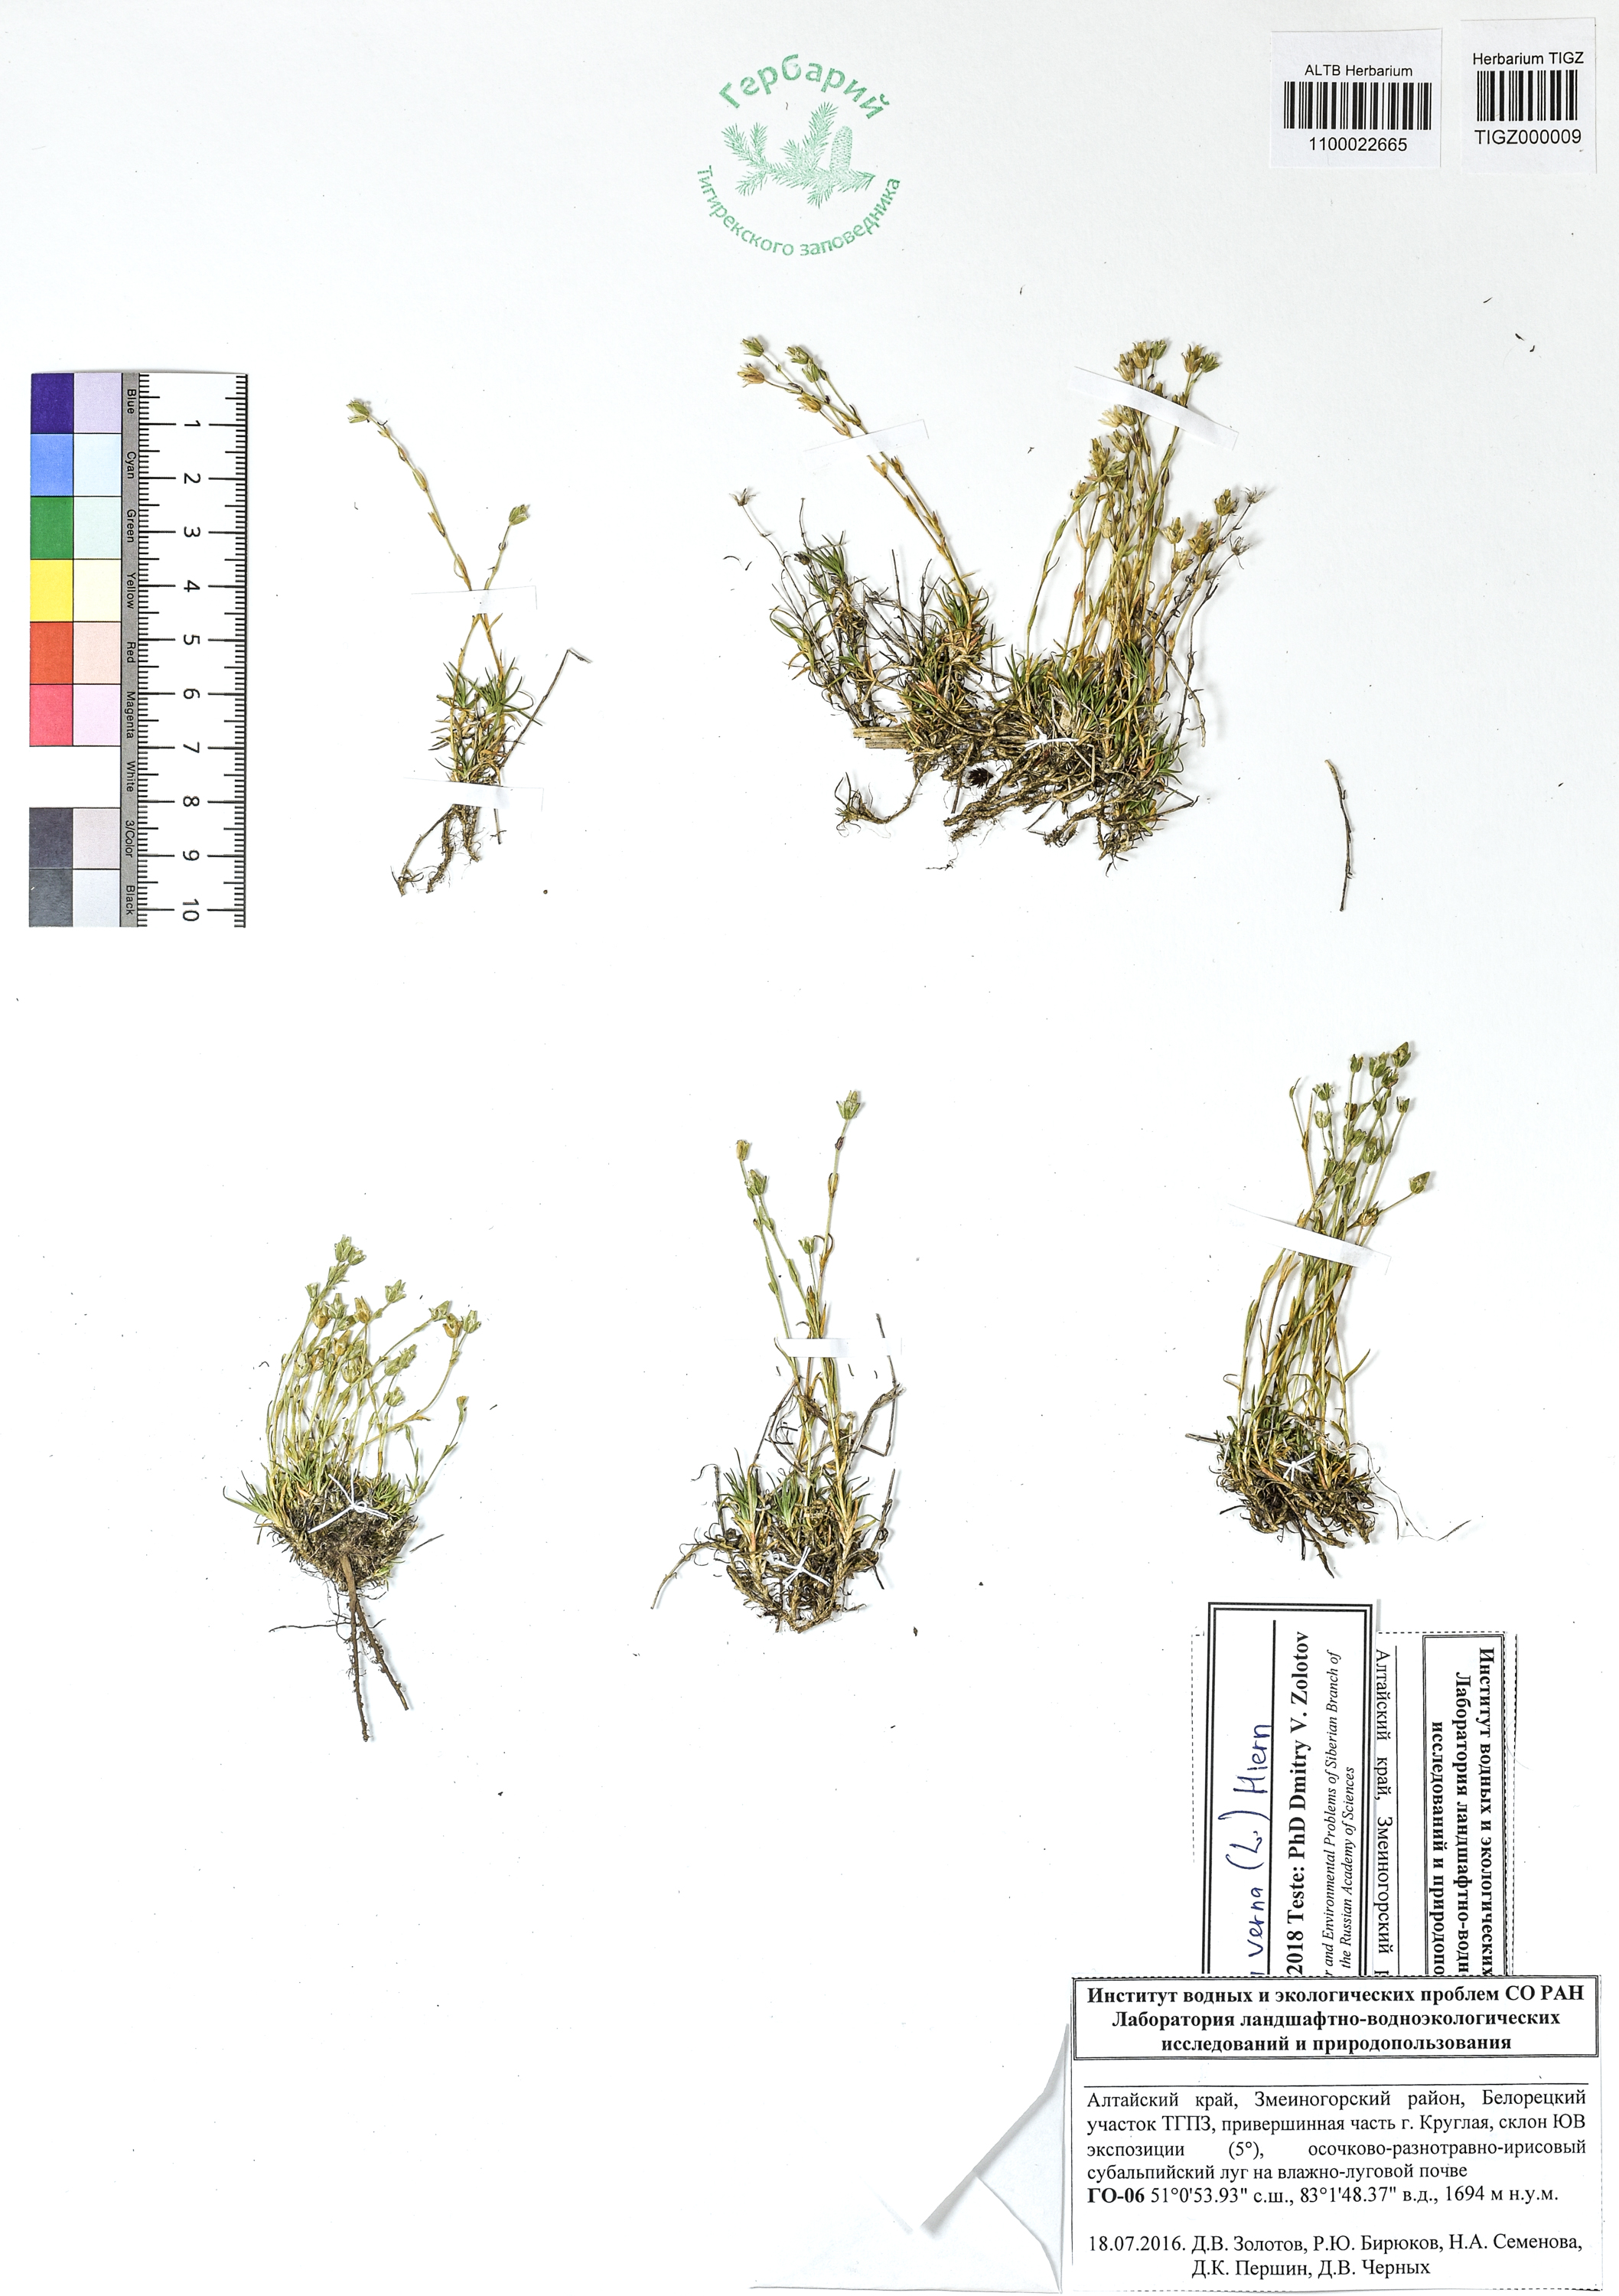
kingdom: Plantae
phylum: Tracheophyta
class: Magnoliopsida
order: Caryophyllales
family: Caryophyllaceae
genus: Sabulina
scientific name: Sabulina verna
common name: Spring sandwort
